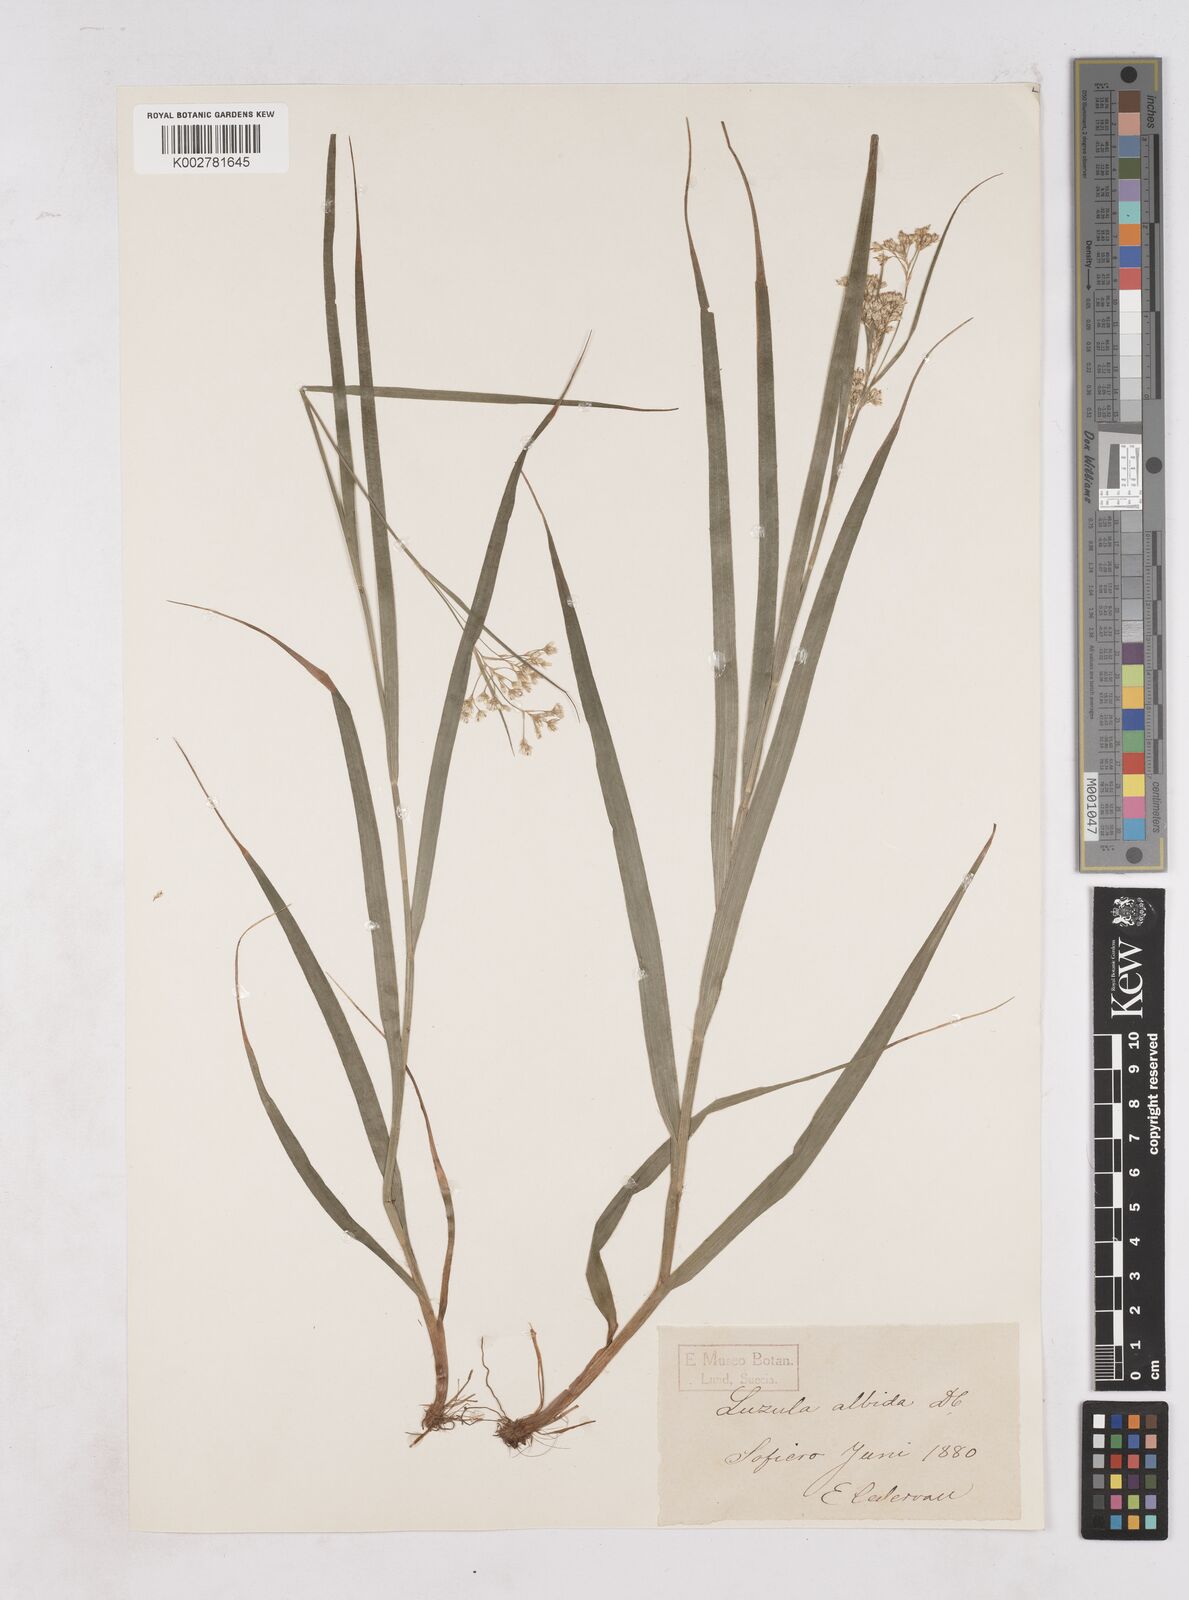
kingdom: Plantae
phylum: Tracheophyta
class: Liliopsida
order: Poales
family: Juncaceae
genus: Luzula
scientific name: Luzula luzuloides
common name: White wood-rush
